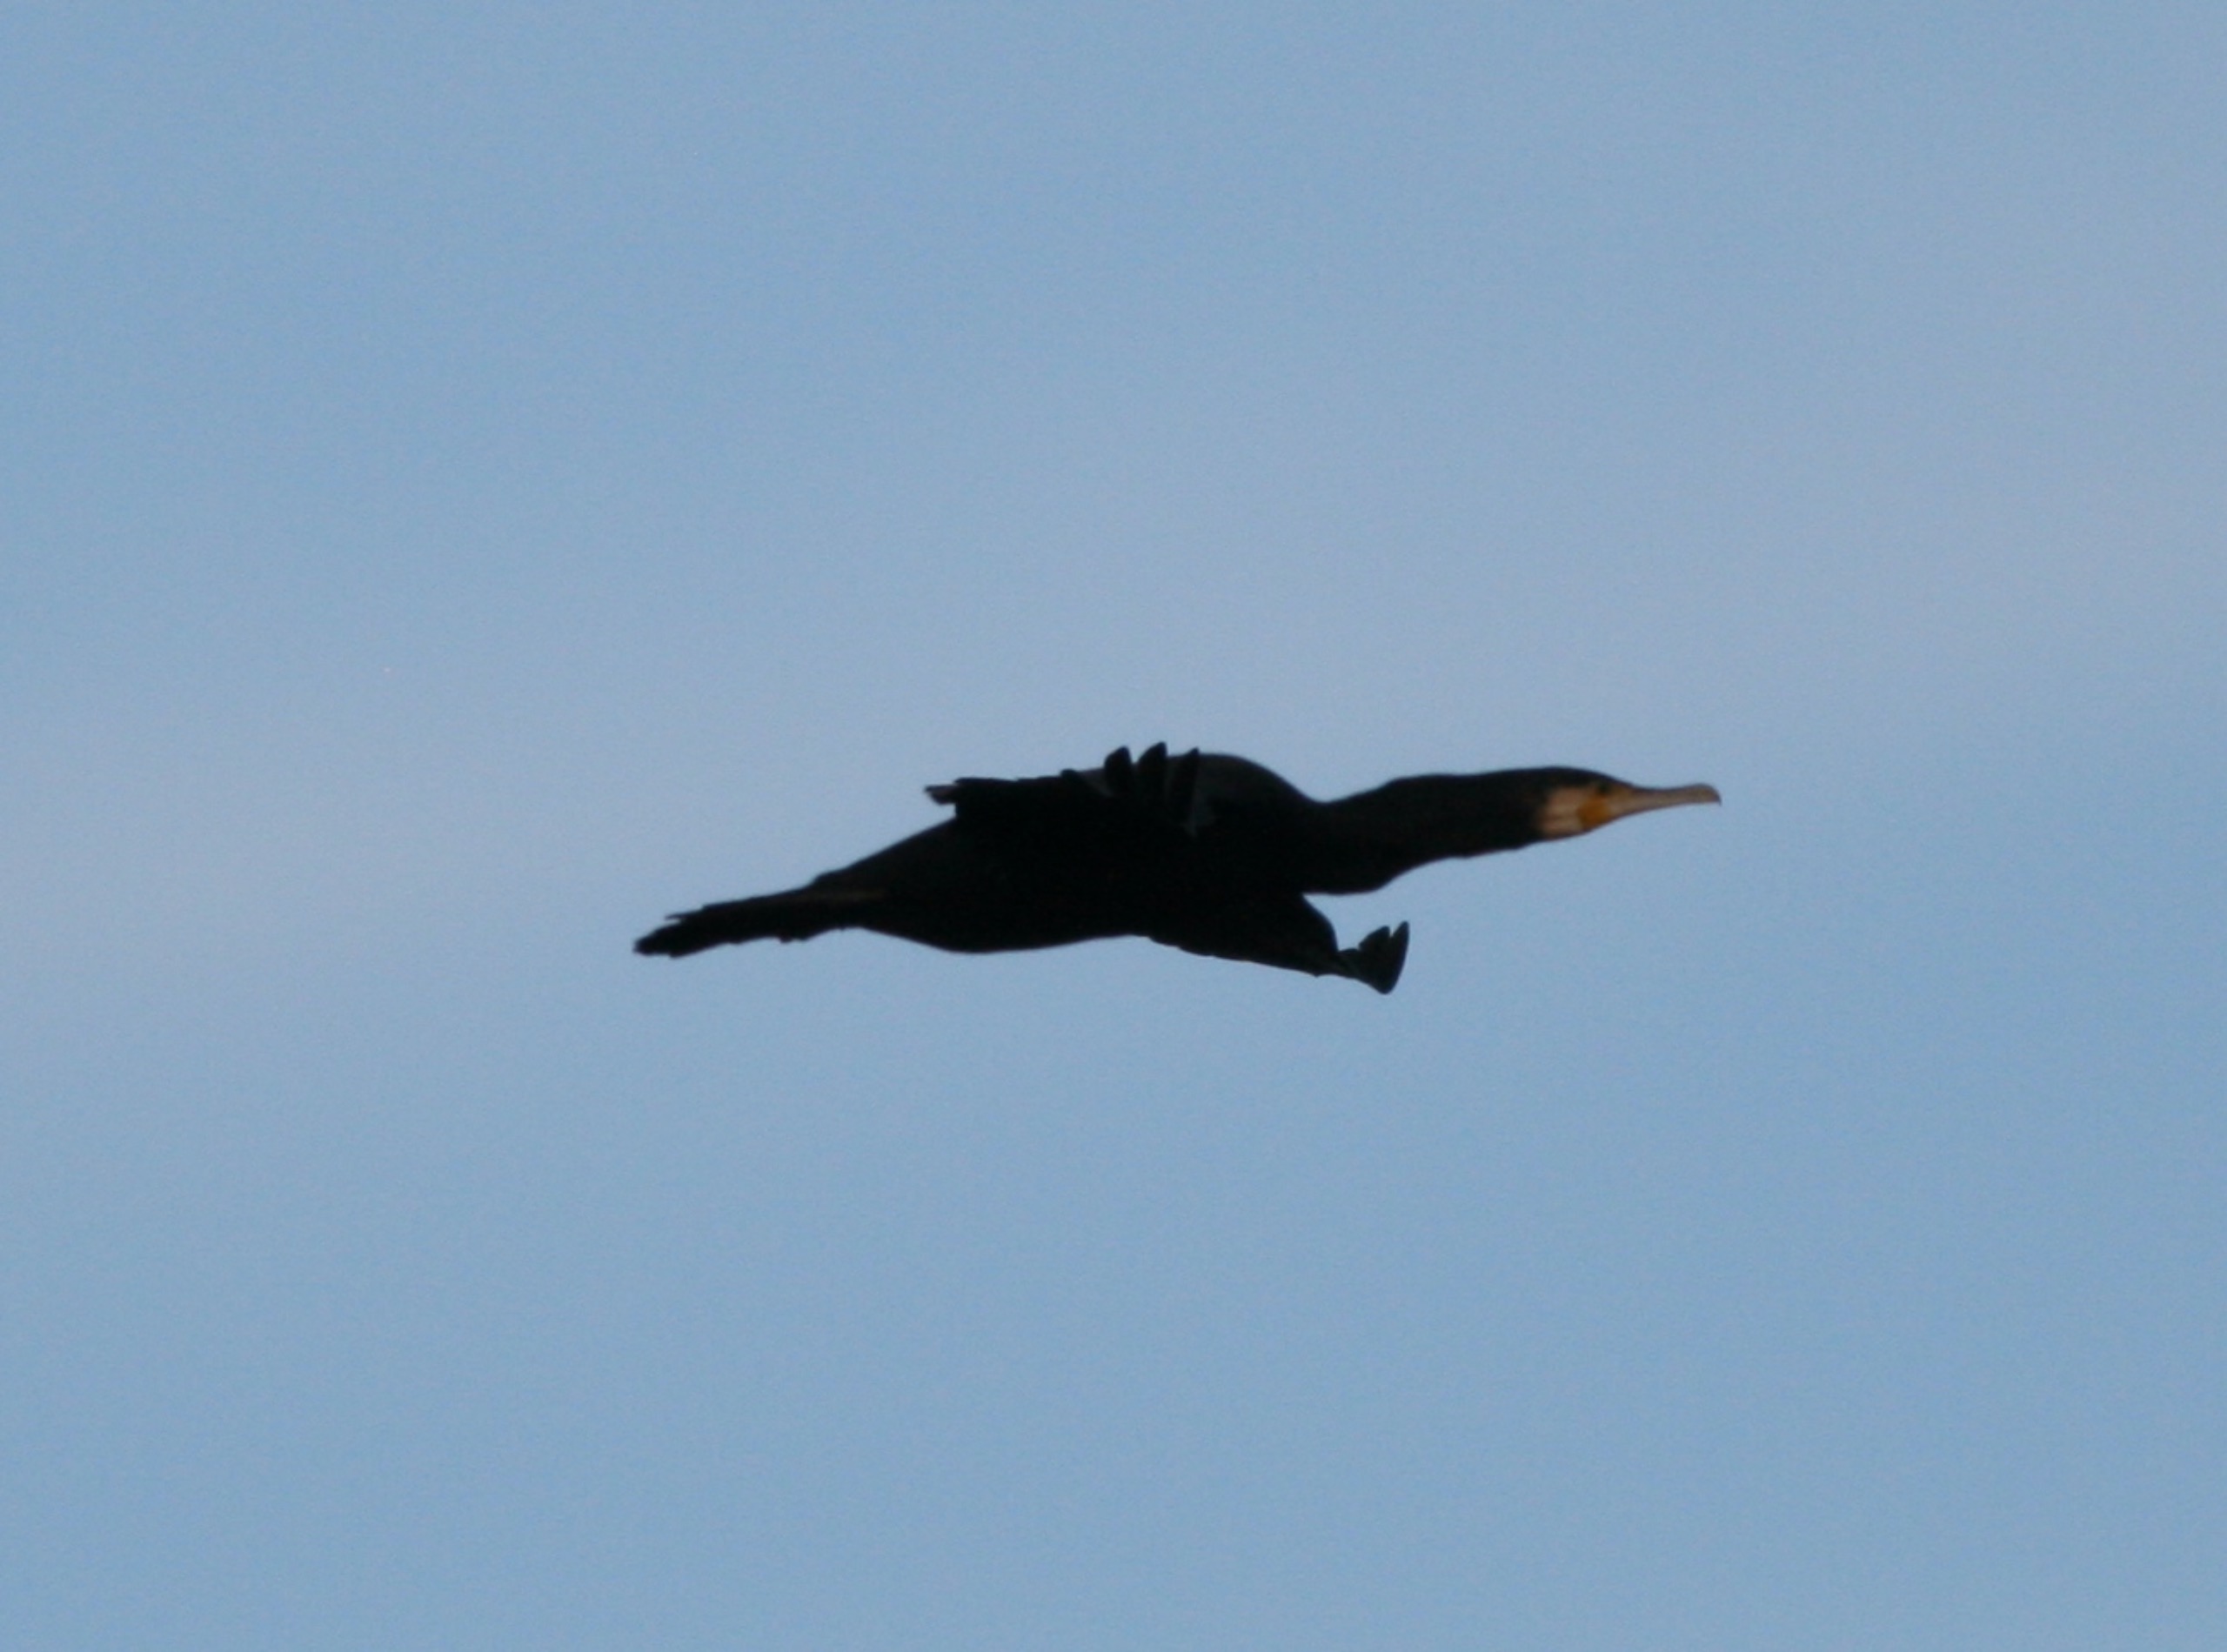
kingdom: Animalia
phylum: Chordata
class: Aves
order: Suliformes
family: Phalacrocoracidae
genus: Phalacrocorax
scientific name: Phalacrocorax carbo
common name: Skarv
